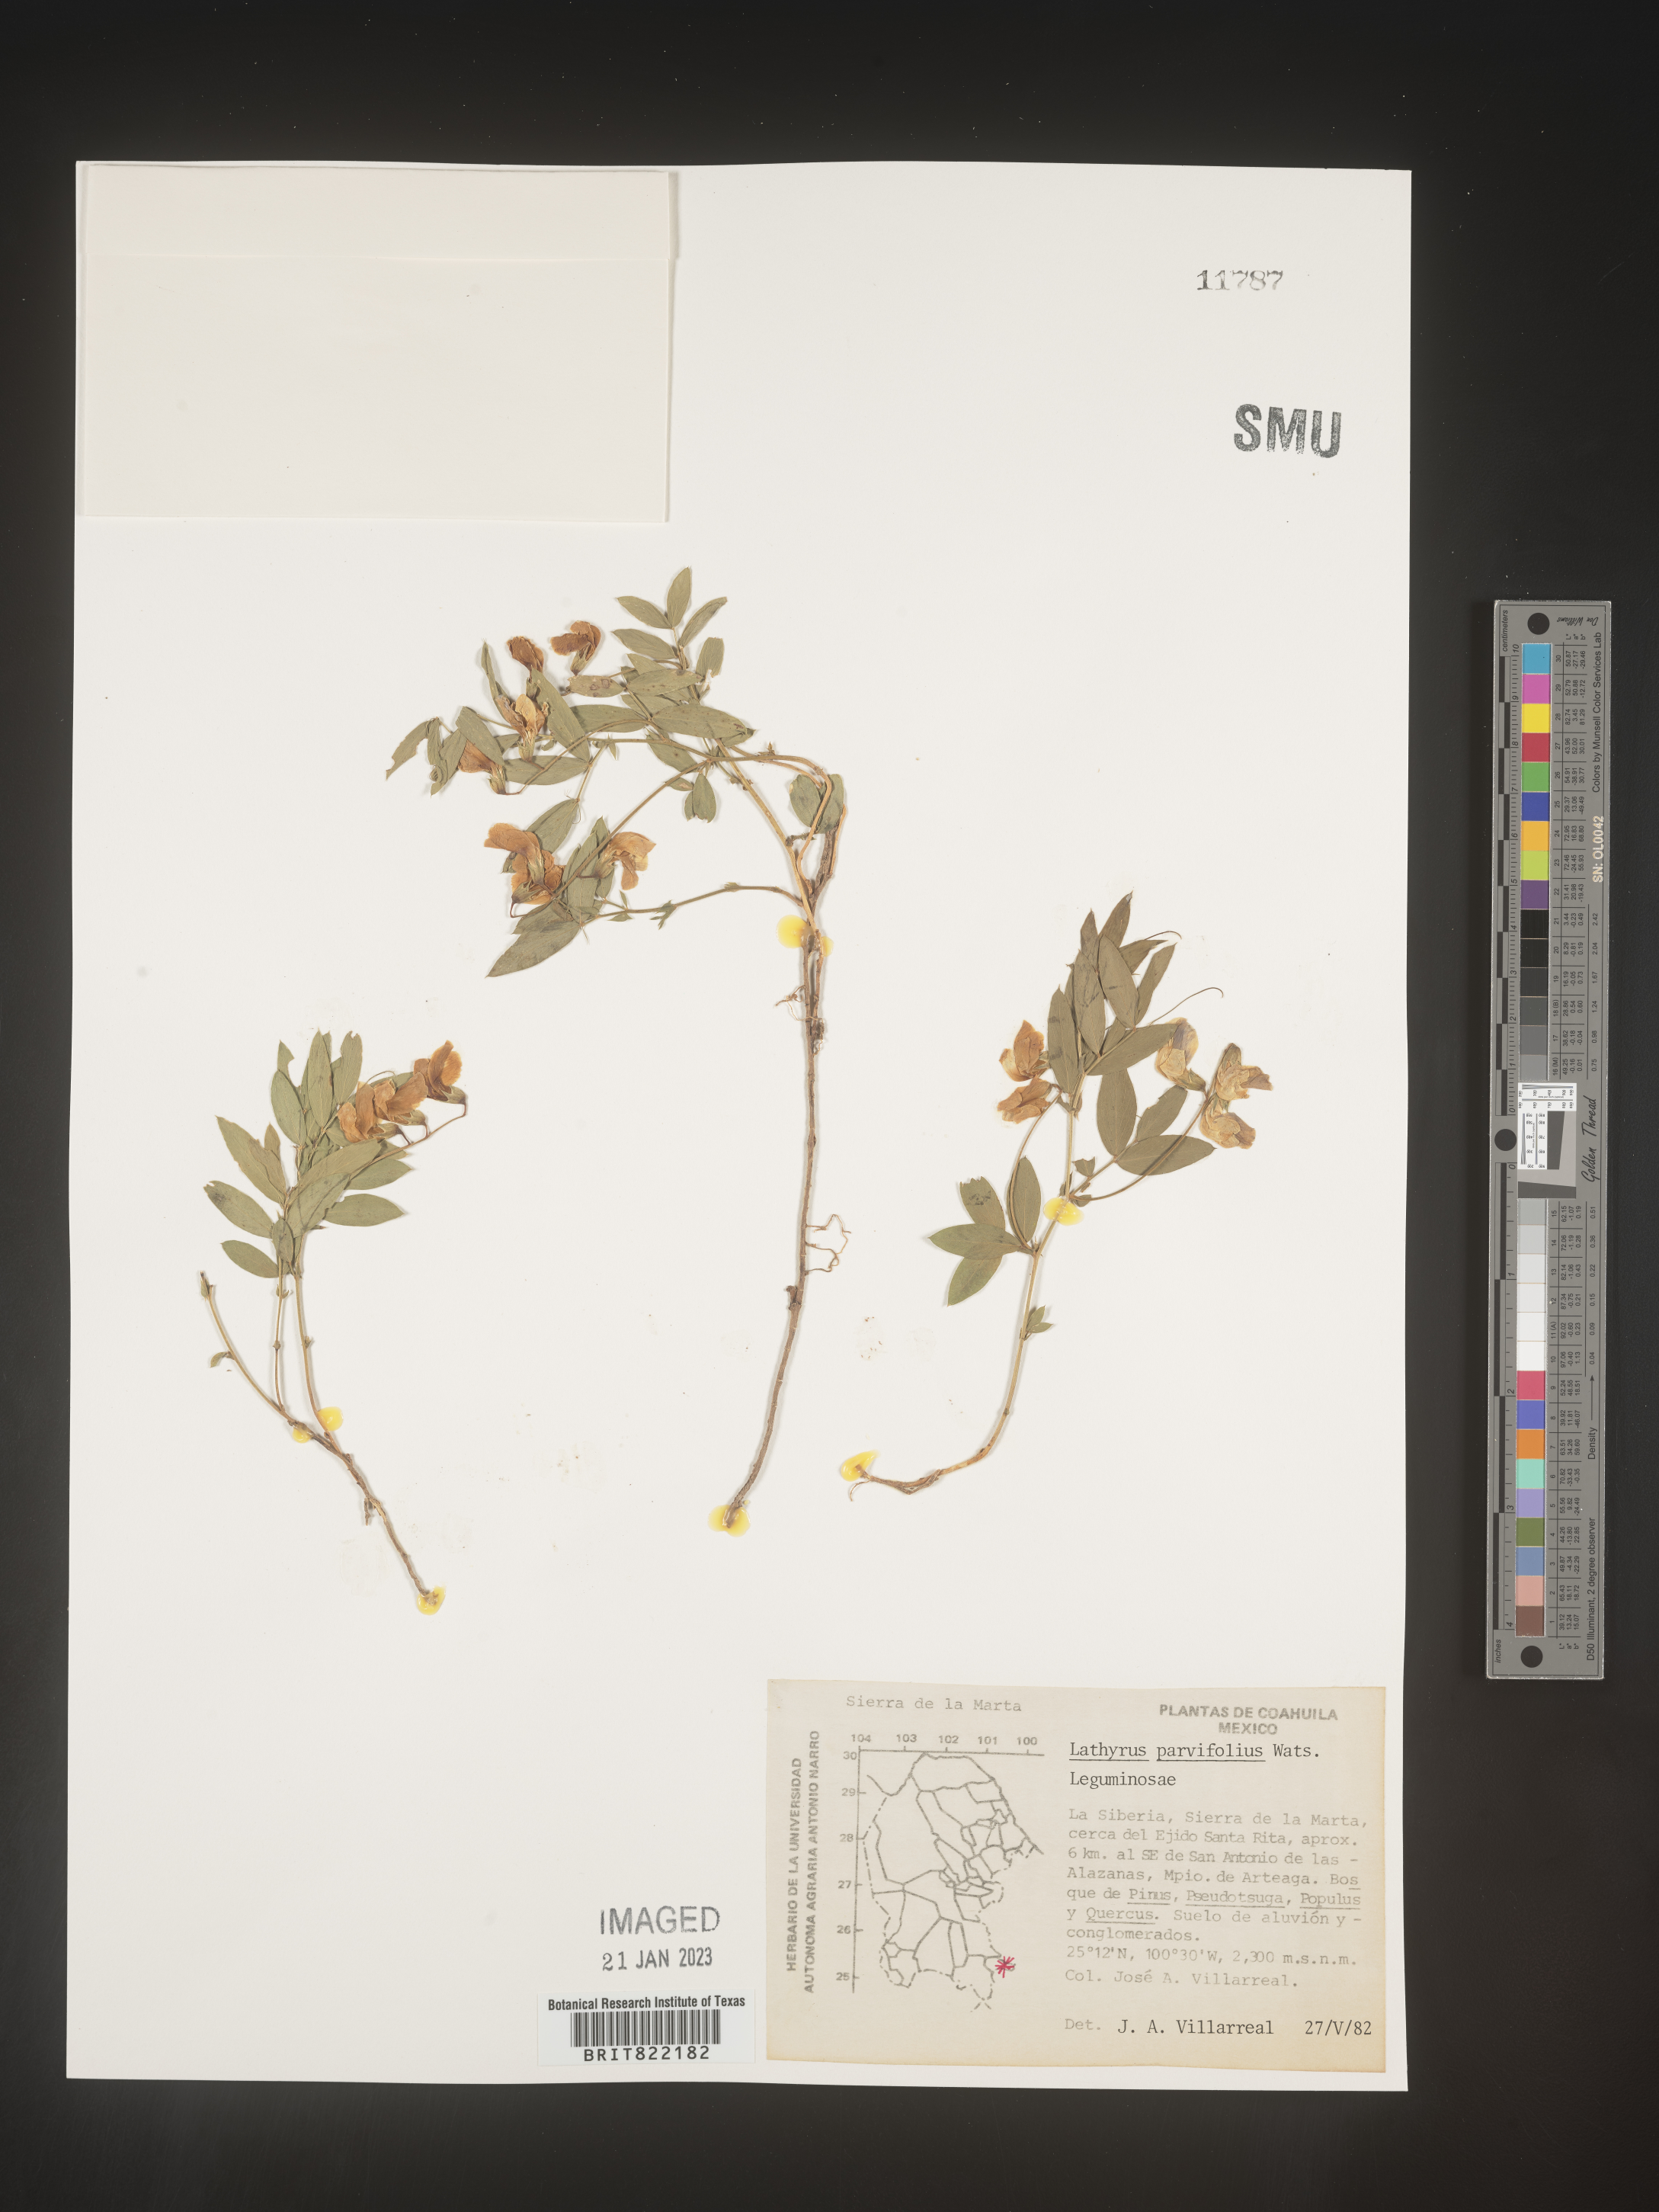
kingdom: Plantae
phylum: Tracheophyta
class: Magnoliopsida
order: Fabales
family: Fabaceae
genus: Lathyrus
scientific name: Lathyrus
